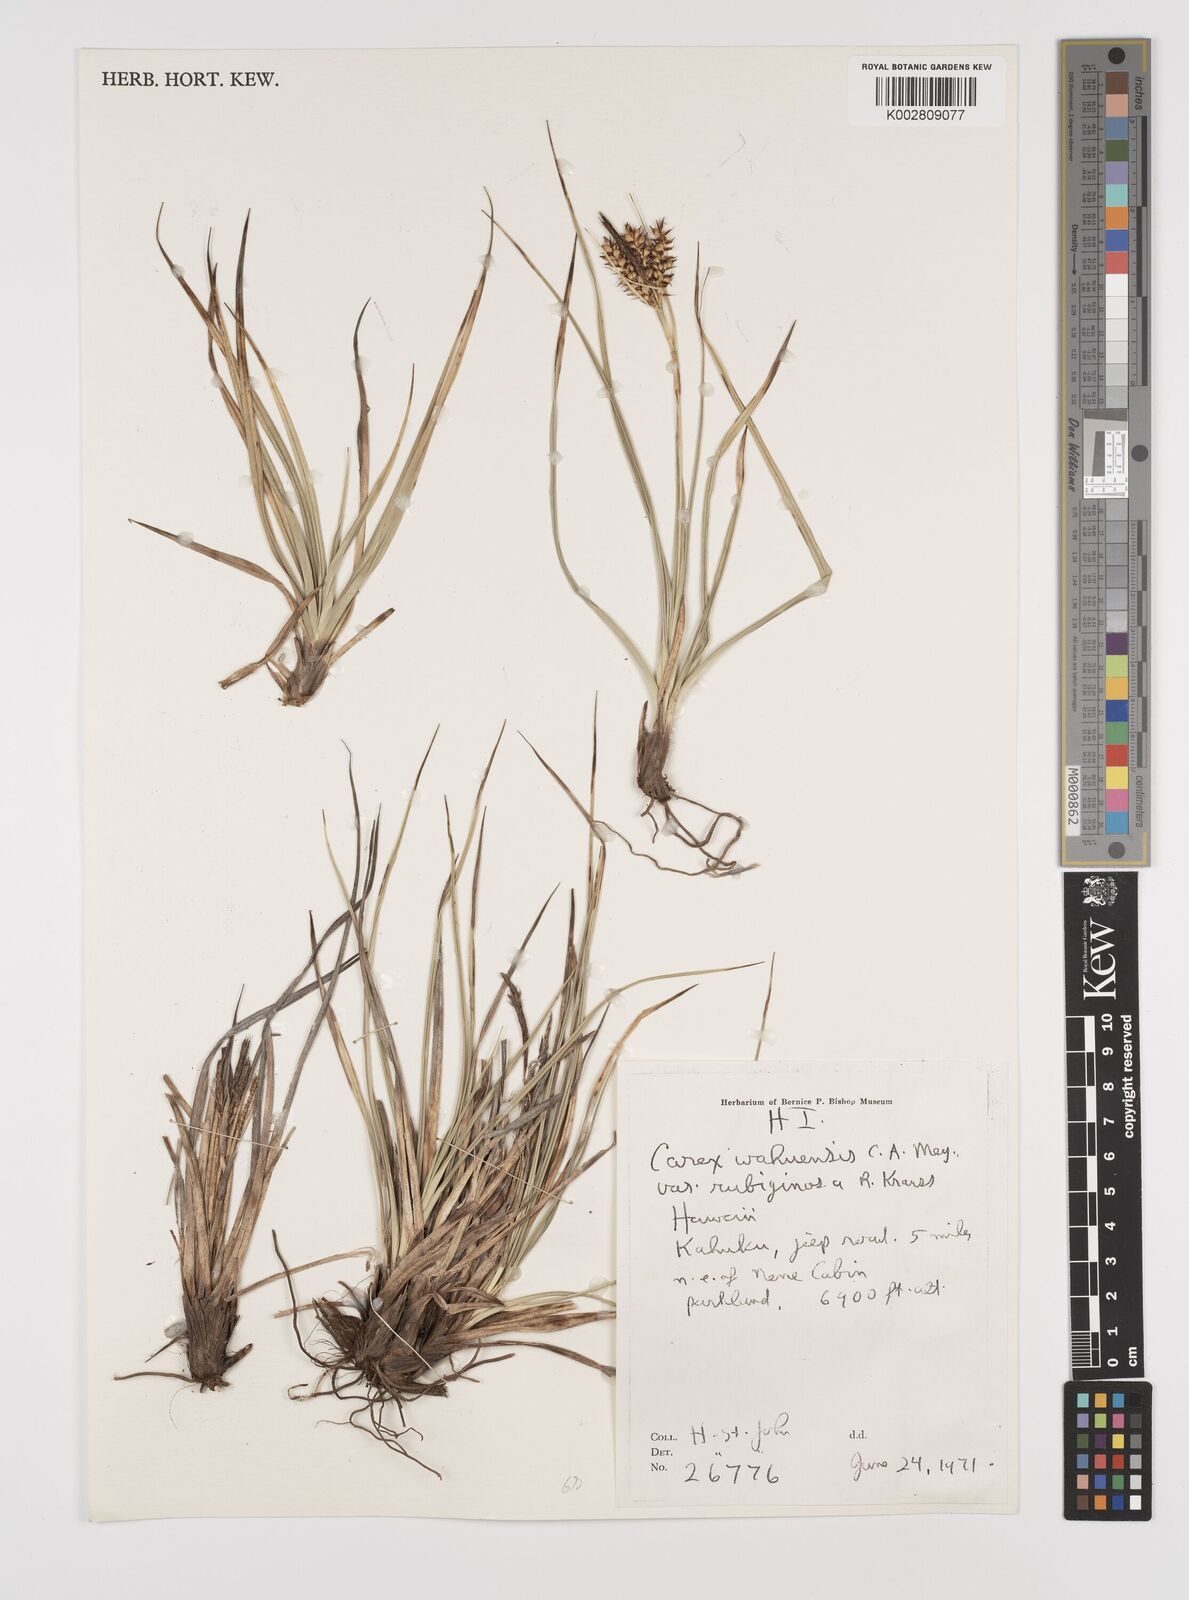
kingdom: Plantae
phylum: Tracheophyta
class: Liliopsida
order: Poales
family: Cyperaceae
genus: Carex
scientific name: Carex wahuensis
